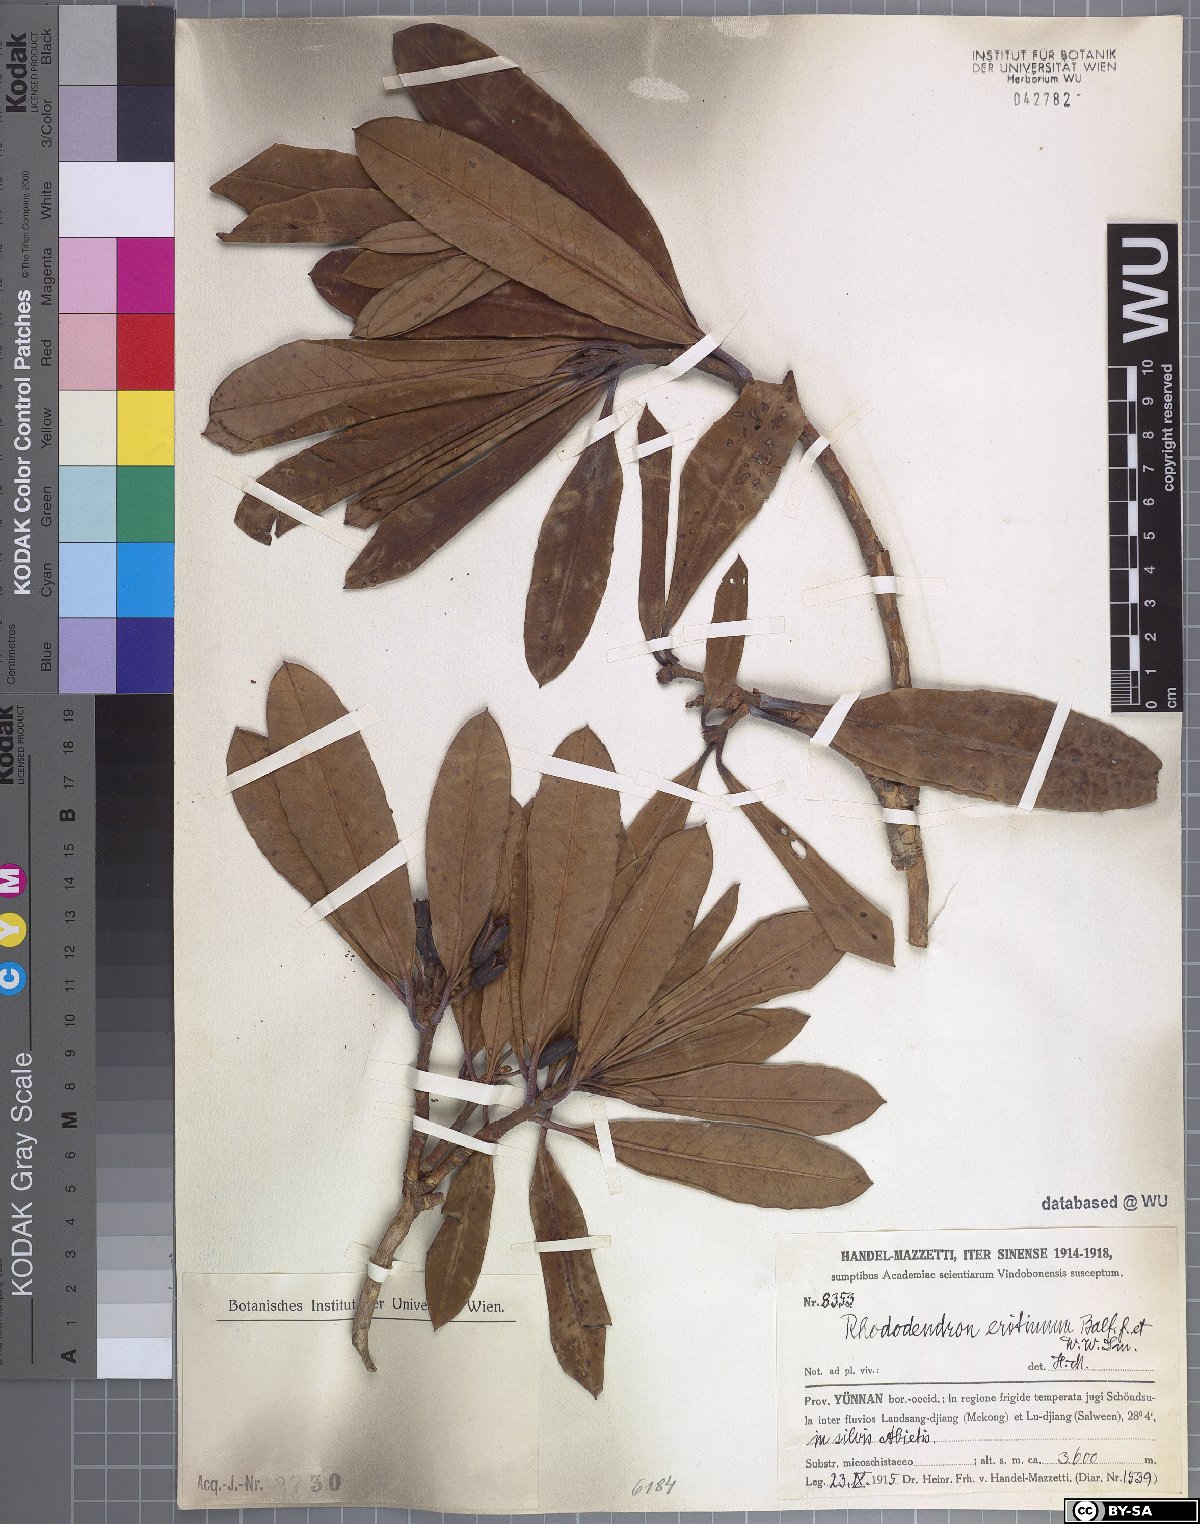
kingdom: Plantae
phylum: Tracheophyta
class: Magnoliopsida
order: Ericales
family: Ericaceae
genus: Rhododendron
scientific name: Rhododendron anthosphaerum
